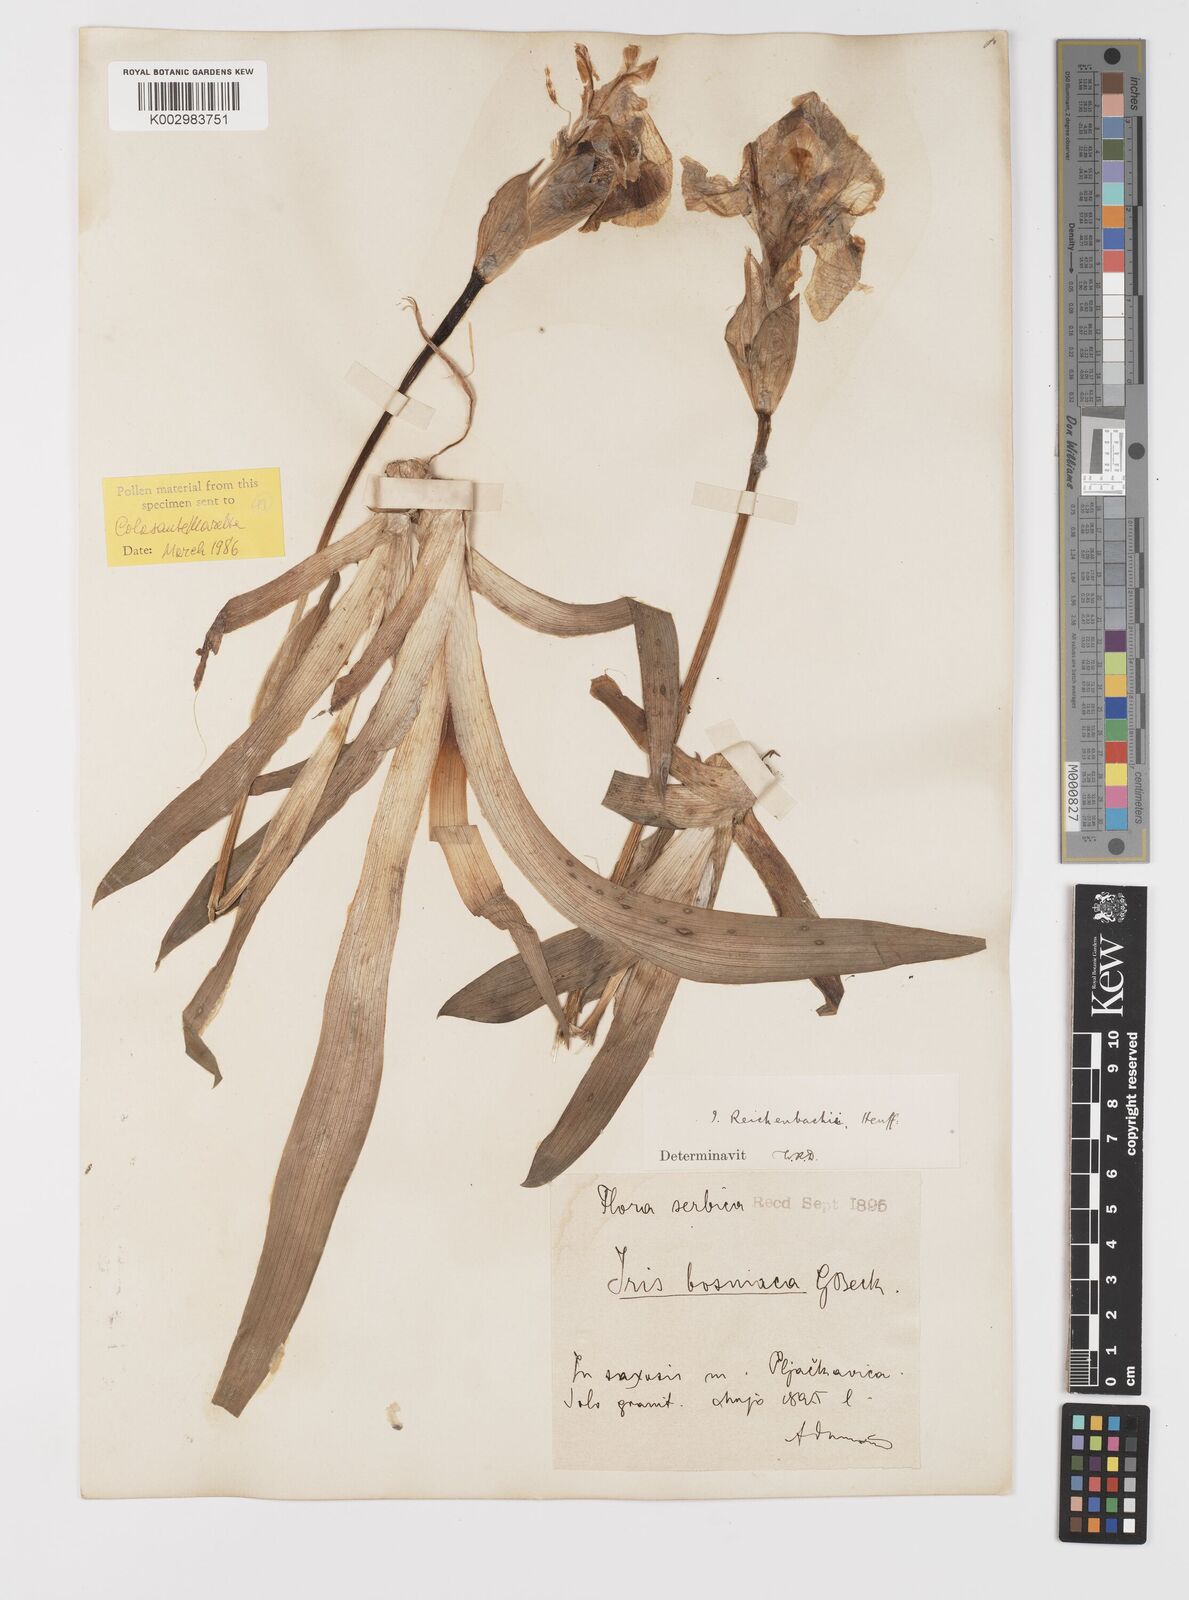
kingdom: Plantae
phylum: Tracheophyta
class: Liliopsida
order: Asparagales
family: Iridaceae
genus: Iris
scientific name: Iris reichenbachii
